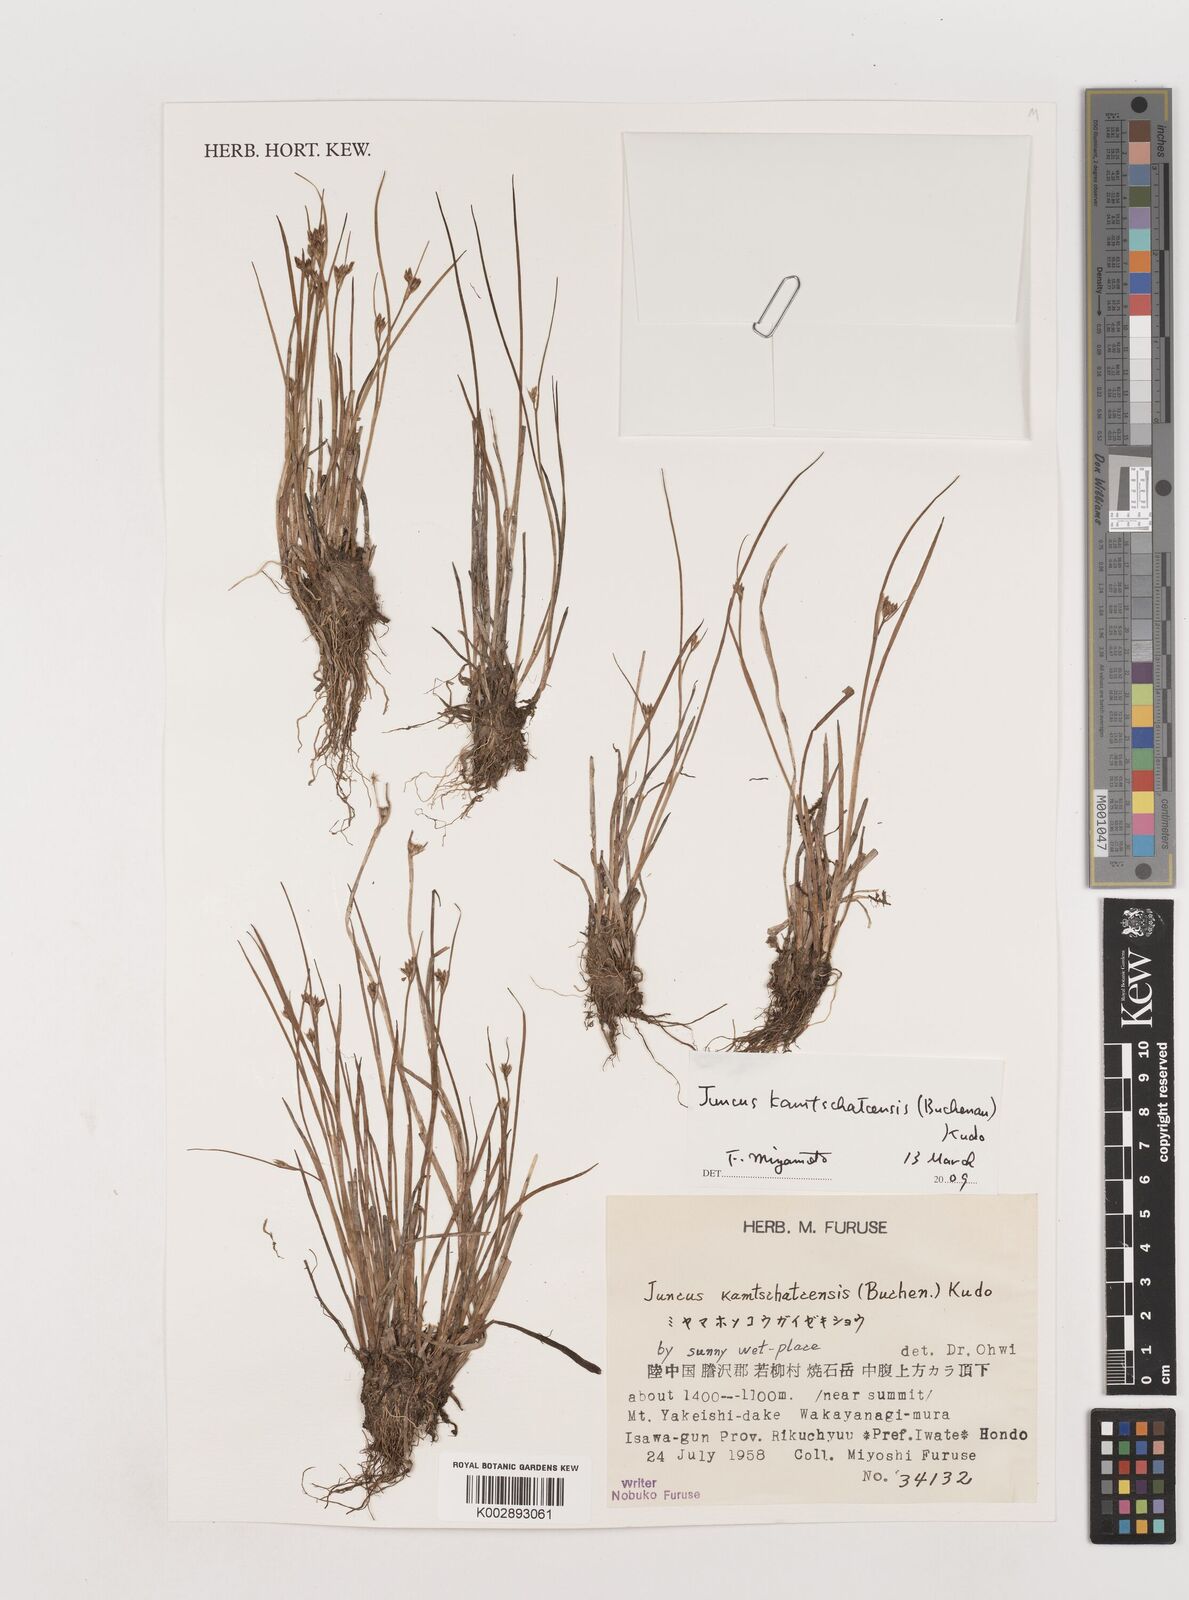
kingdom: Plantae
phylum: Tracheophyta
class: Liliopsida
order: Poales
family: Juncaceae
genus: Juncus
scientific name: Juncus fauriensis
